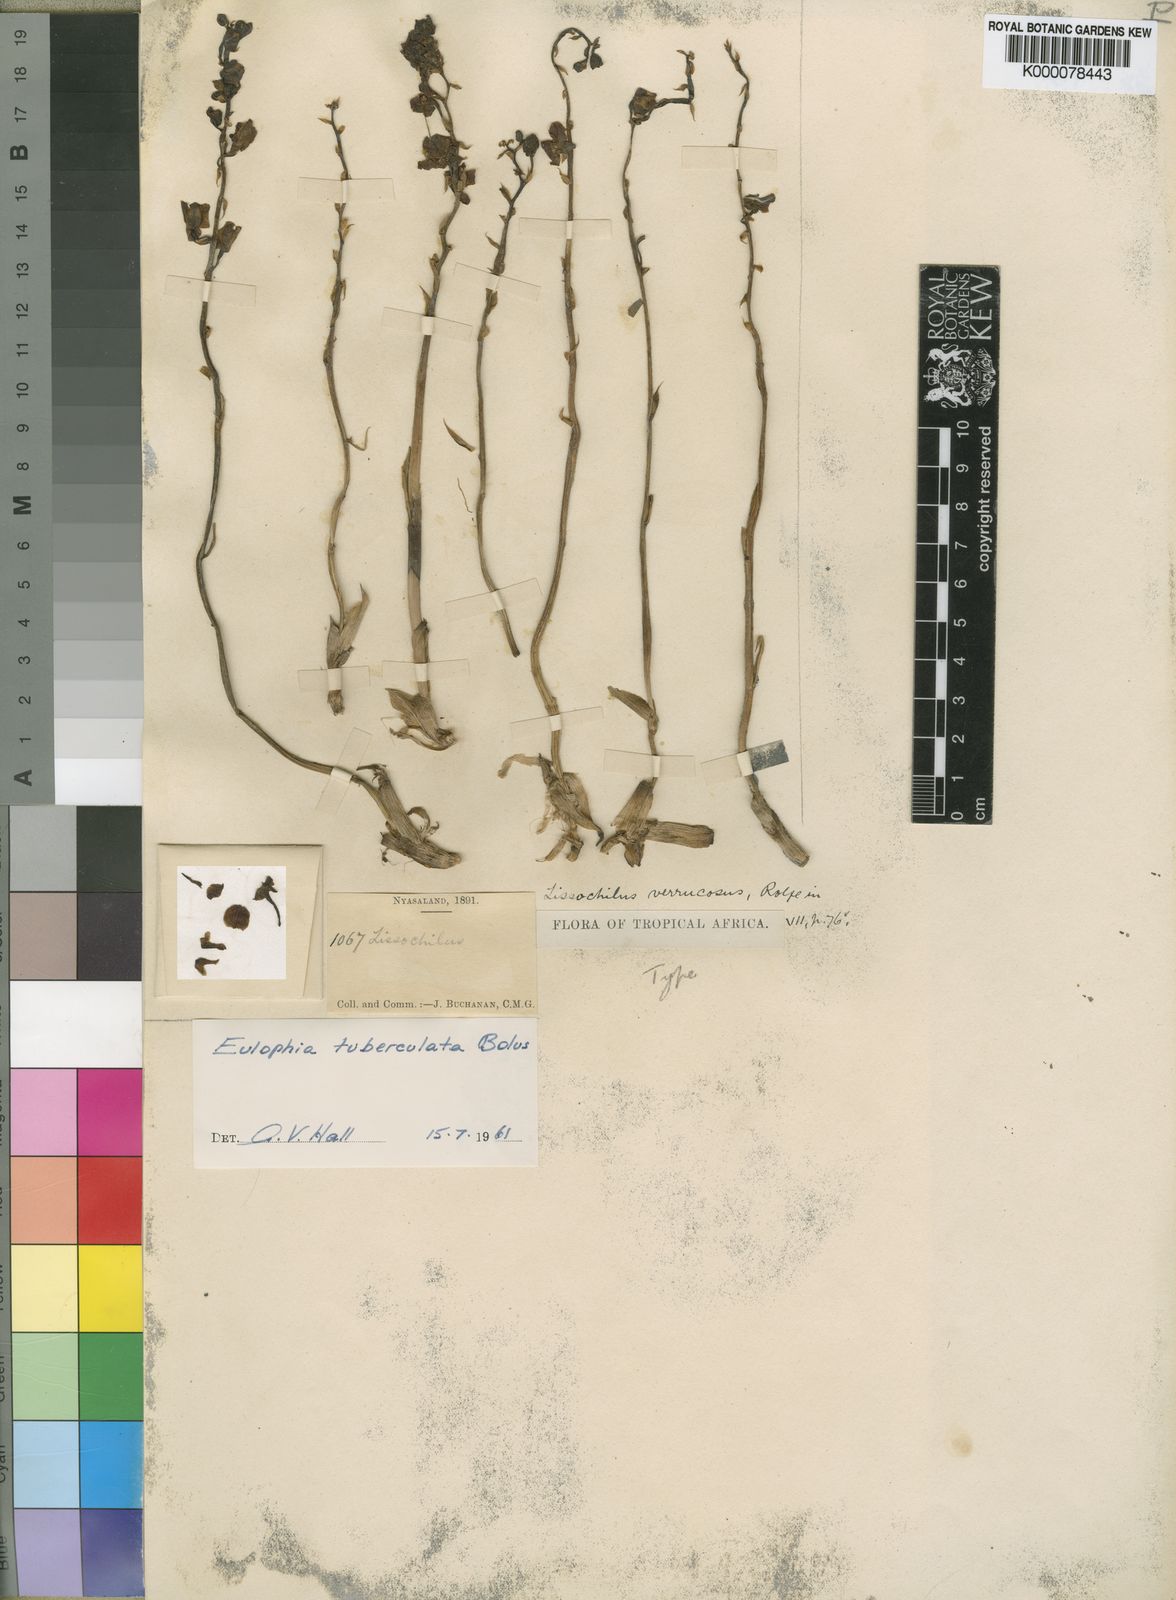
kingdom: Plantae
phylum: Tracheophyta
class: Liliopsida
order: Asparagales
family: Orchidaceae
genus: Eulophia
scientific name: Eulophia tuberculata
